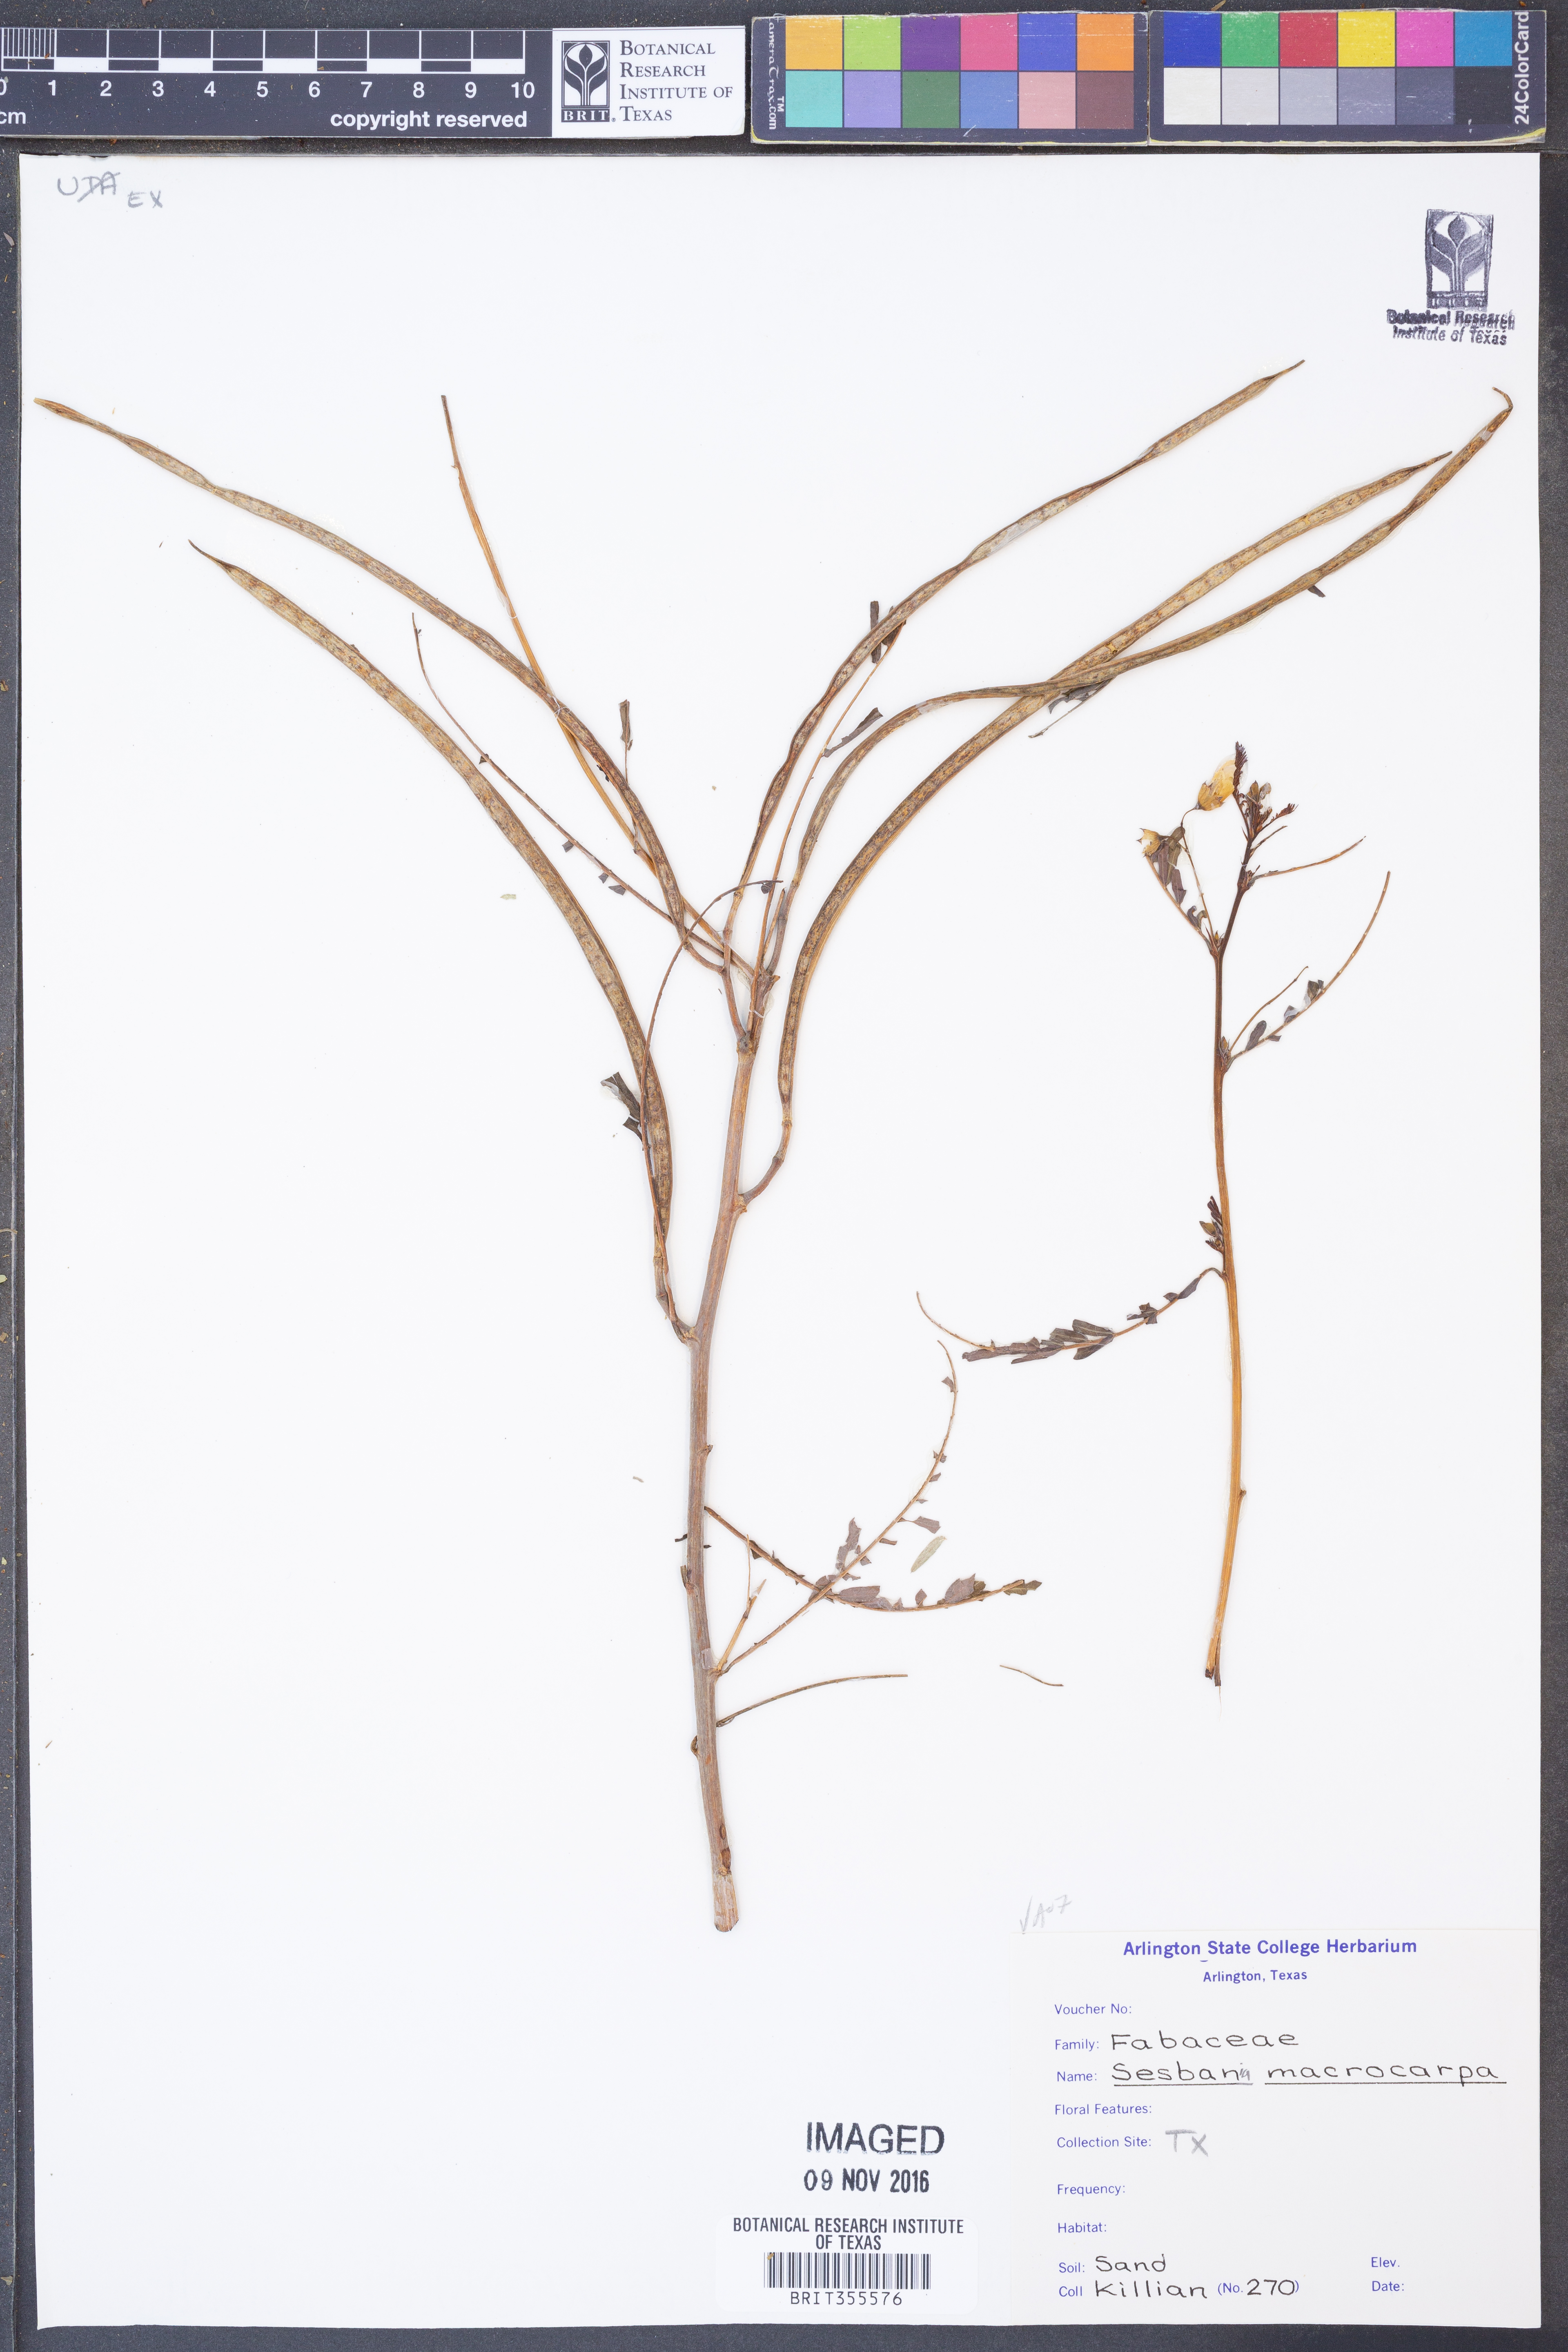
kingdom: Plantae
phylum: Tracheophyta
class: Magnoliopsida
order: Fabales
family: Fabaceae
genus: Sesbania
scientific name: Sesbania vesicaria
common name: Bagpod
